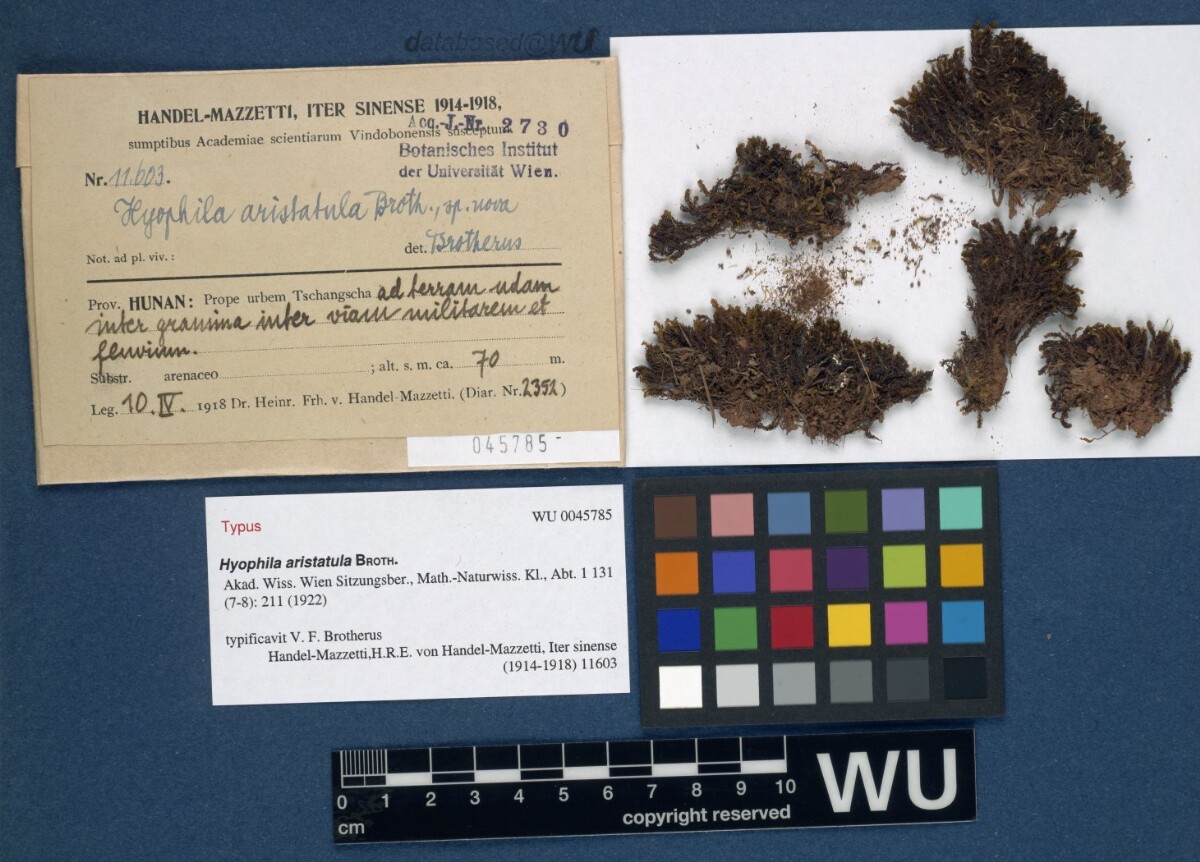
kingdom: Plantae
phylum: Bryophyta
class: Bryopsida
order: Pottiales
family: Pottiaceae
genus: Trichostomum
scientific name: Trichostomum zanderi
